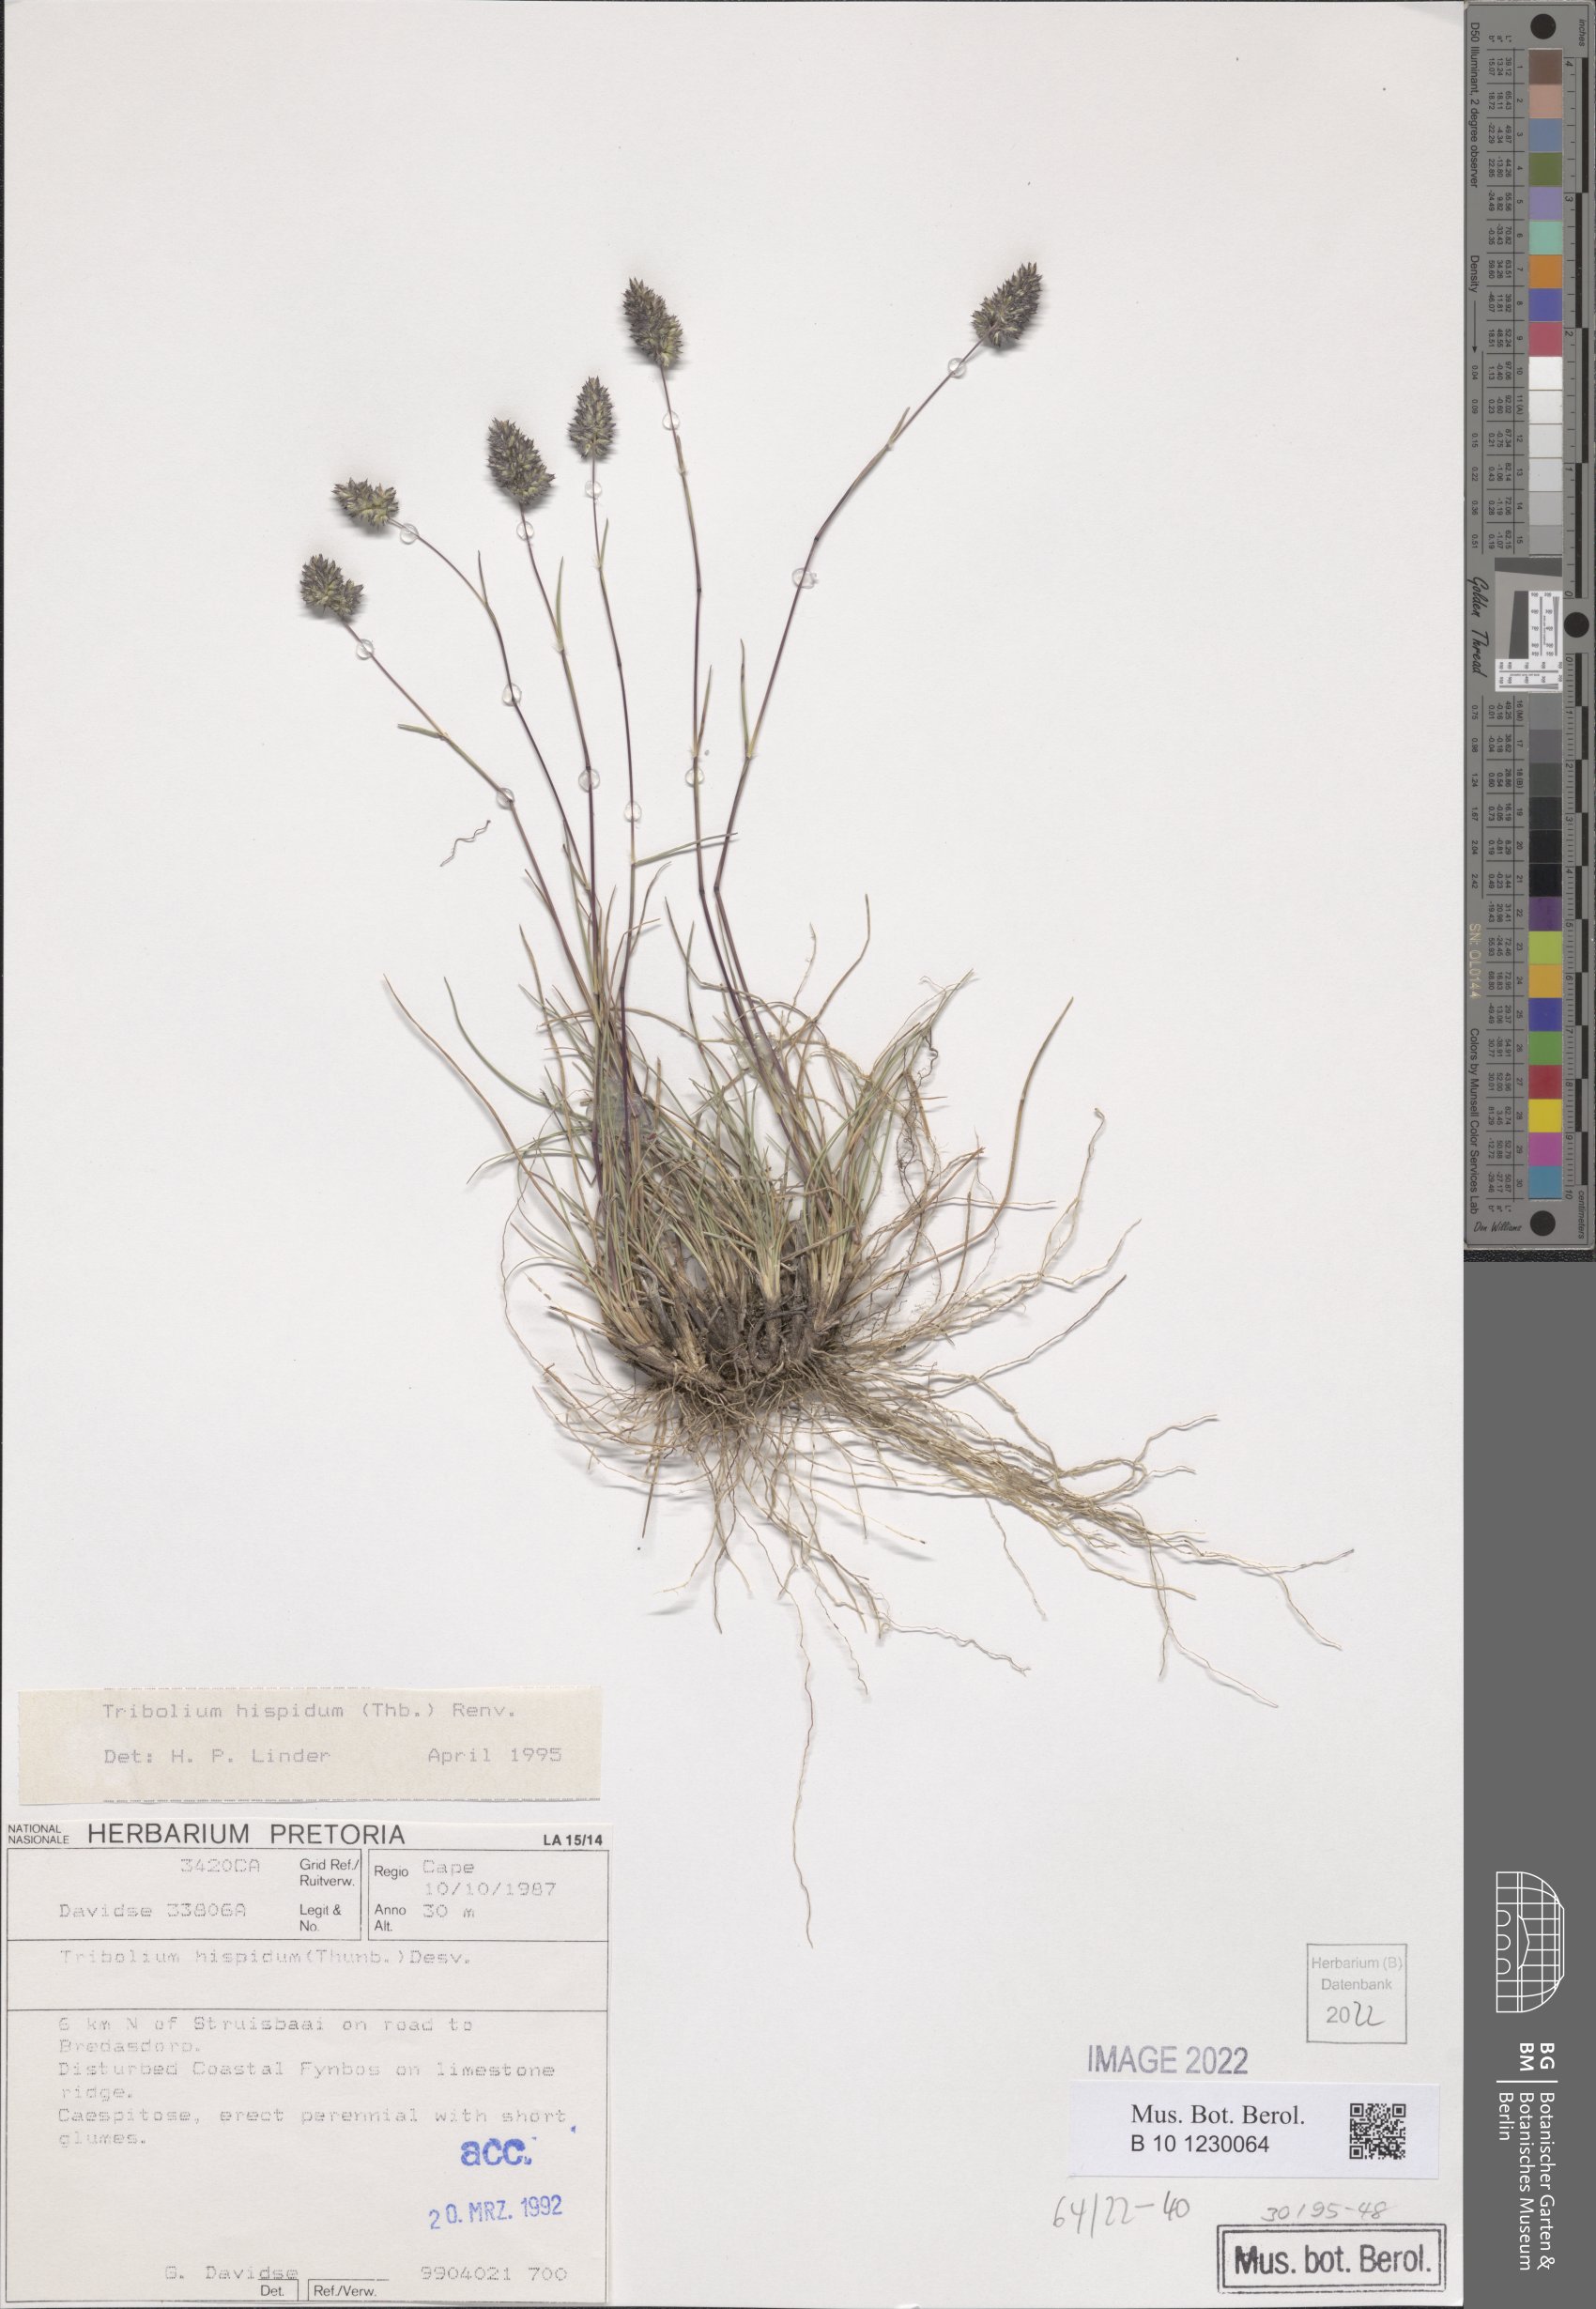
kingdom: Plantae
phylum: Tracheophyta
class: Liliopsida
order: Poales
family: Poaceae
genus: Tribolium
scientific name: Tribolium hispidum
